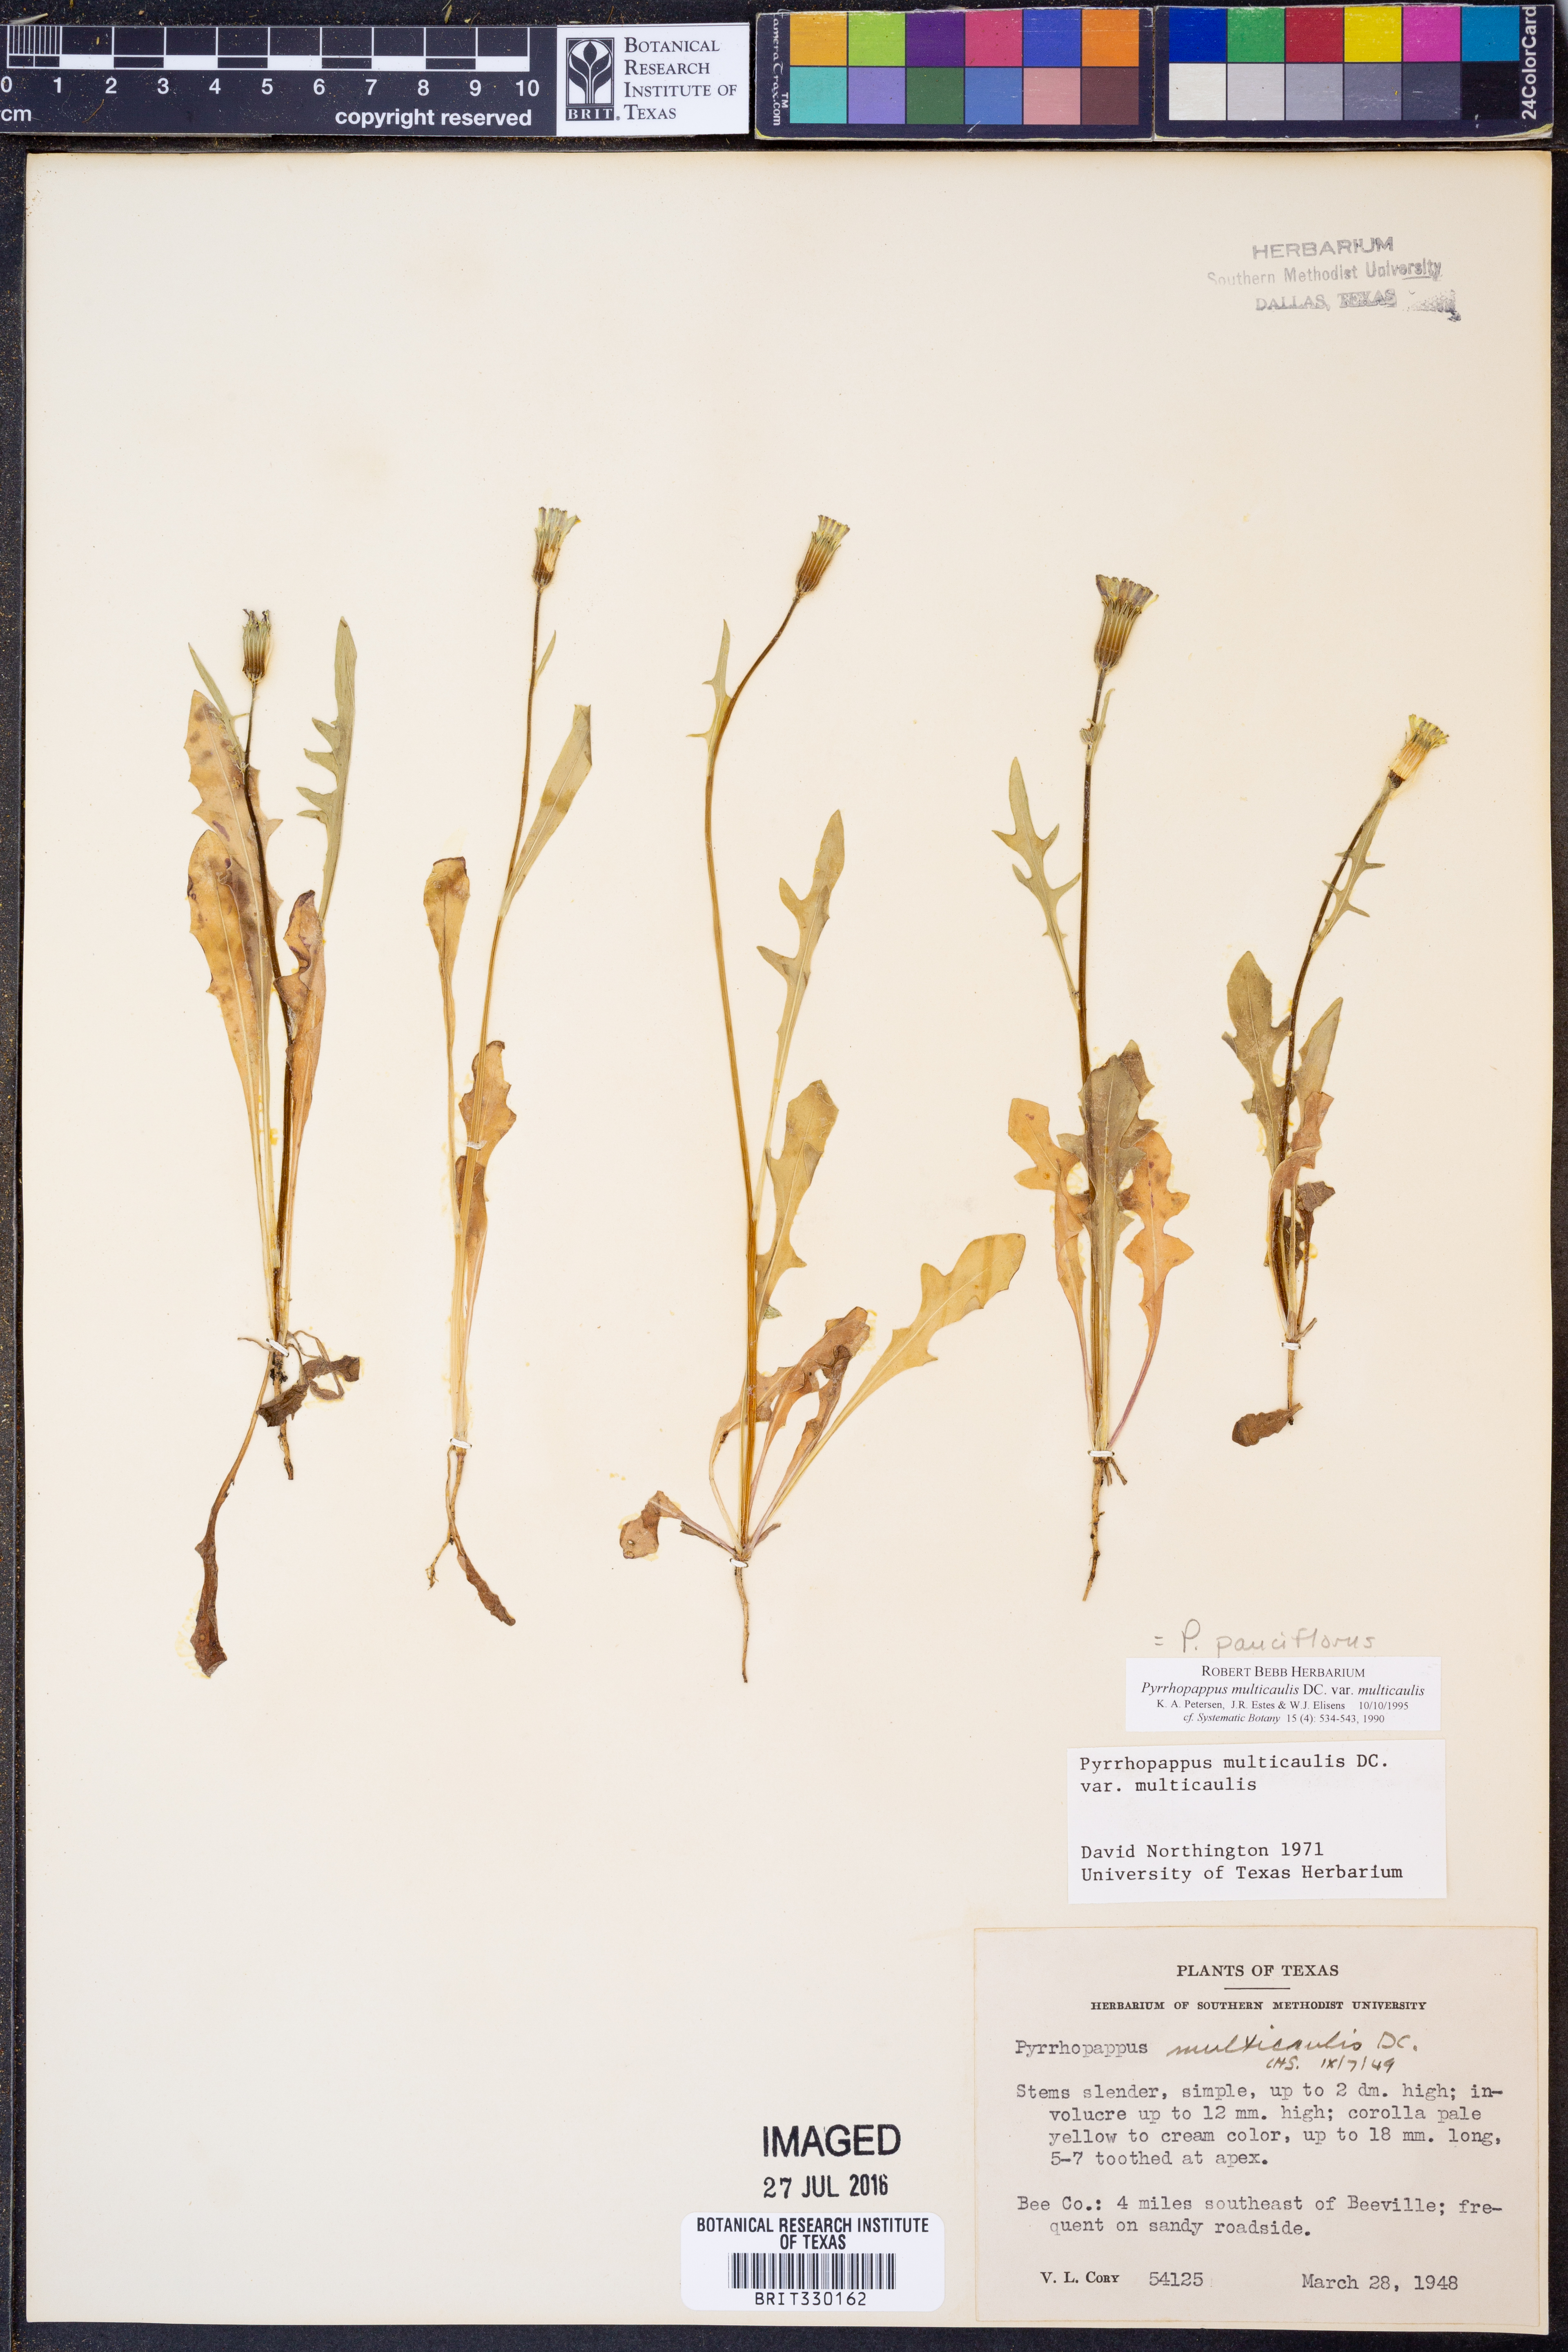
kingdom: Plantae
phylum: Tracheophyta
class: Magnoliopsida
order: Asterales
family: Asteraceae
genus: Pyrrhopappus
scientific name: Pyrrhopappus pauciflorus
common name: Texas false dandelion
